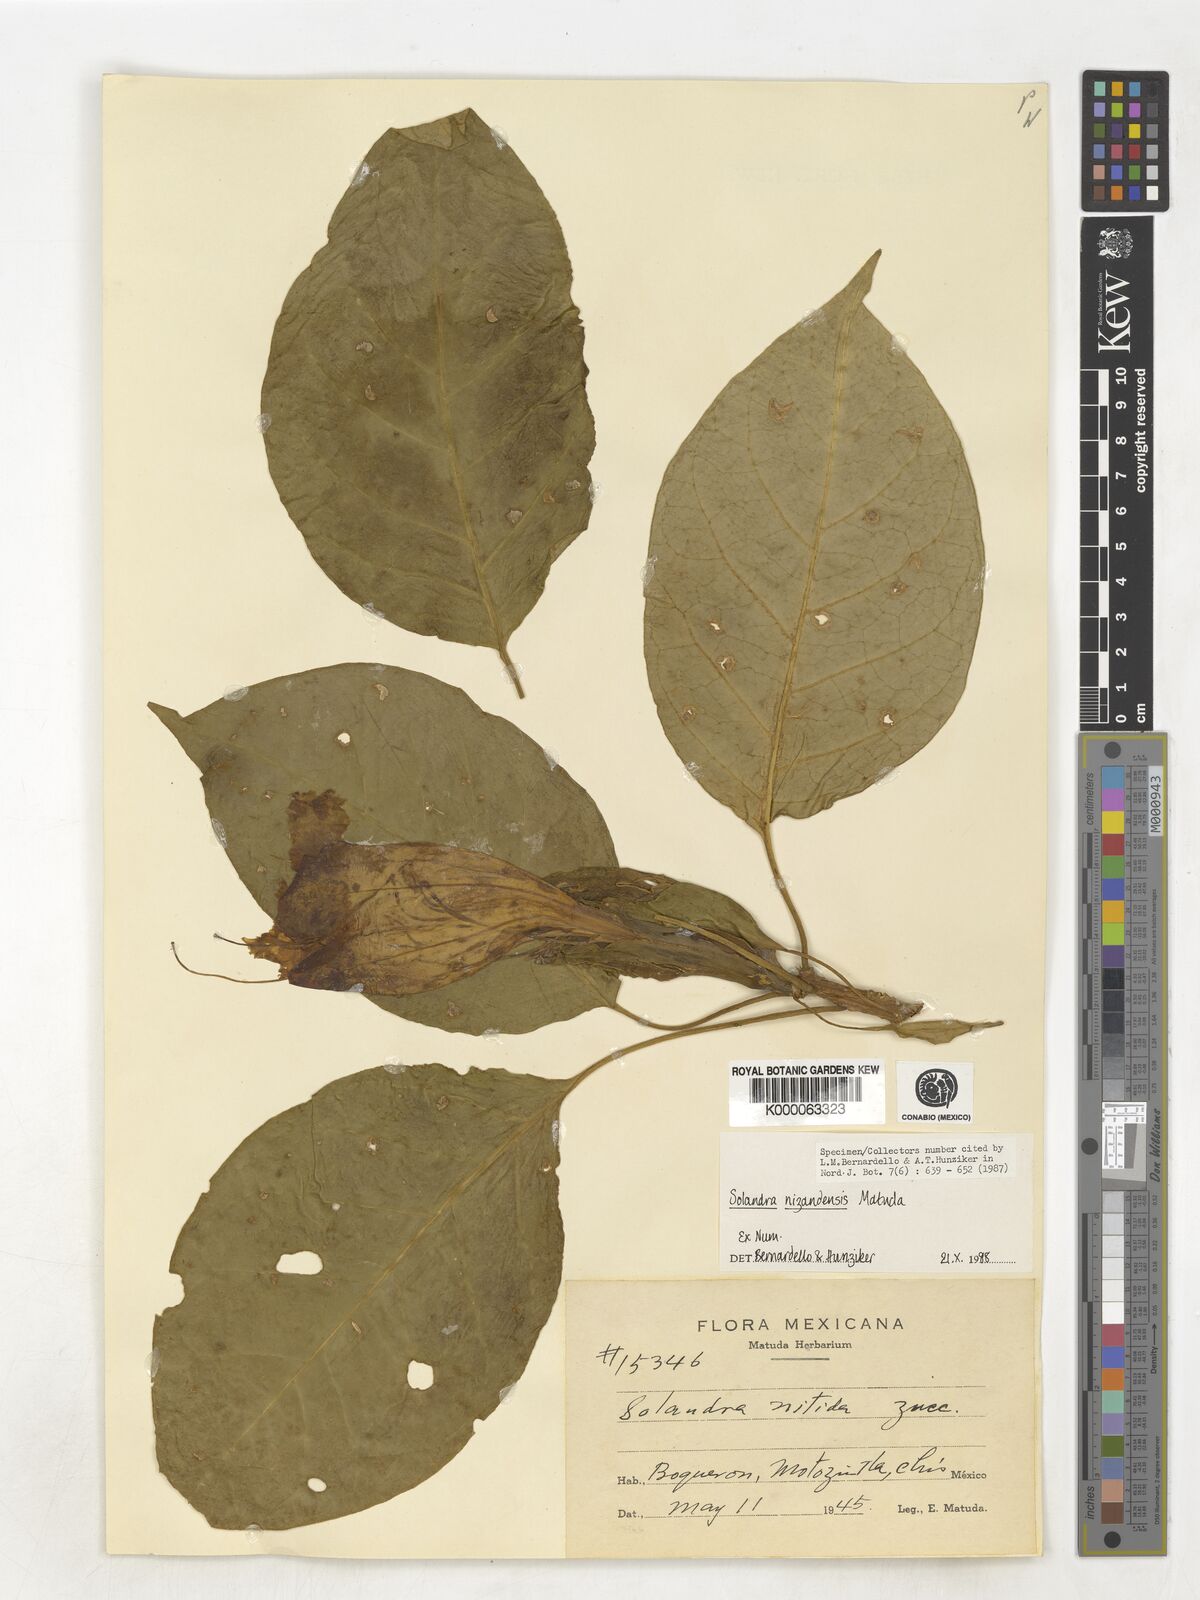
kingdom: Plantae
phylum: Tracheophyta
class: Magnoliopsida
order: Solanales
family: Solanaceae
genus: Solandra
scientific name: Solandra
